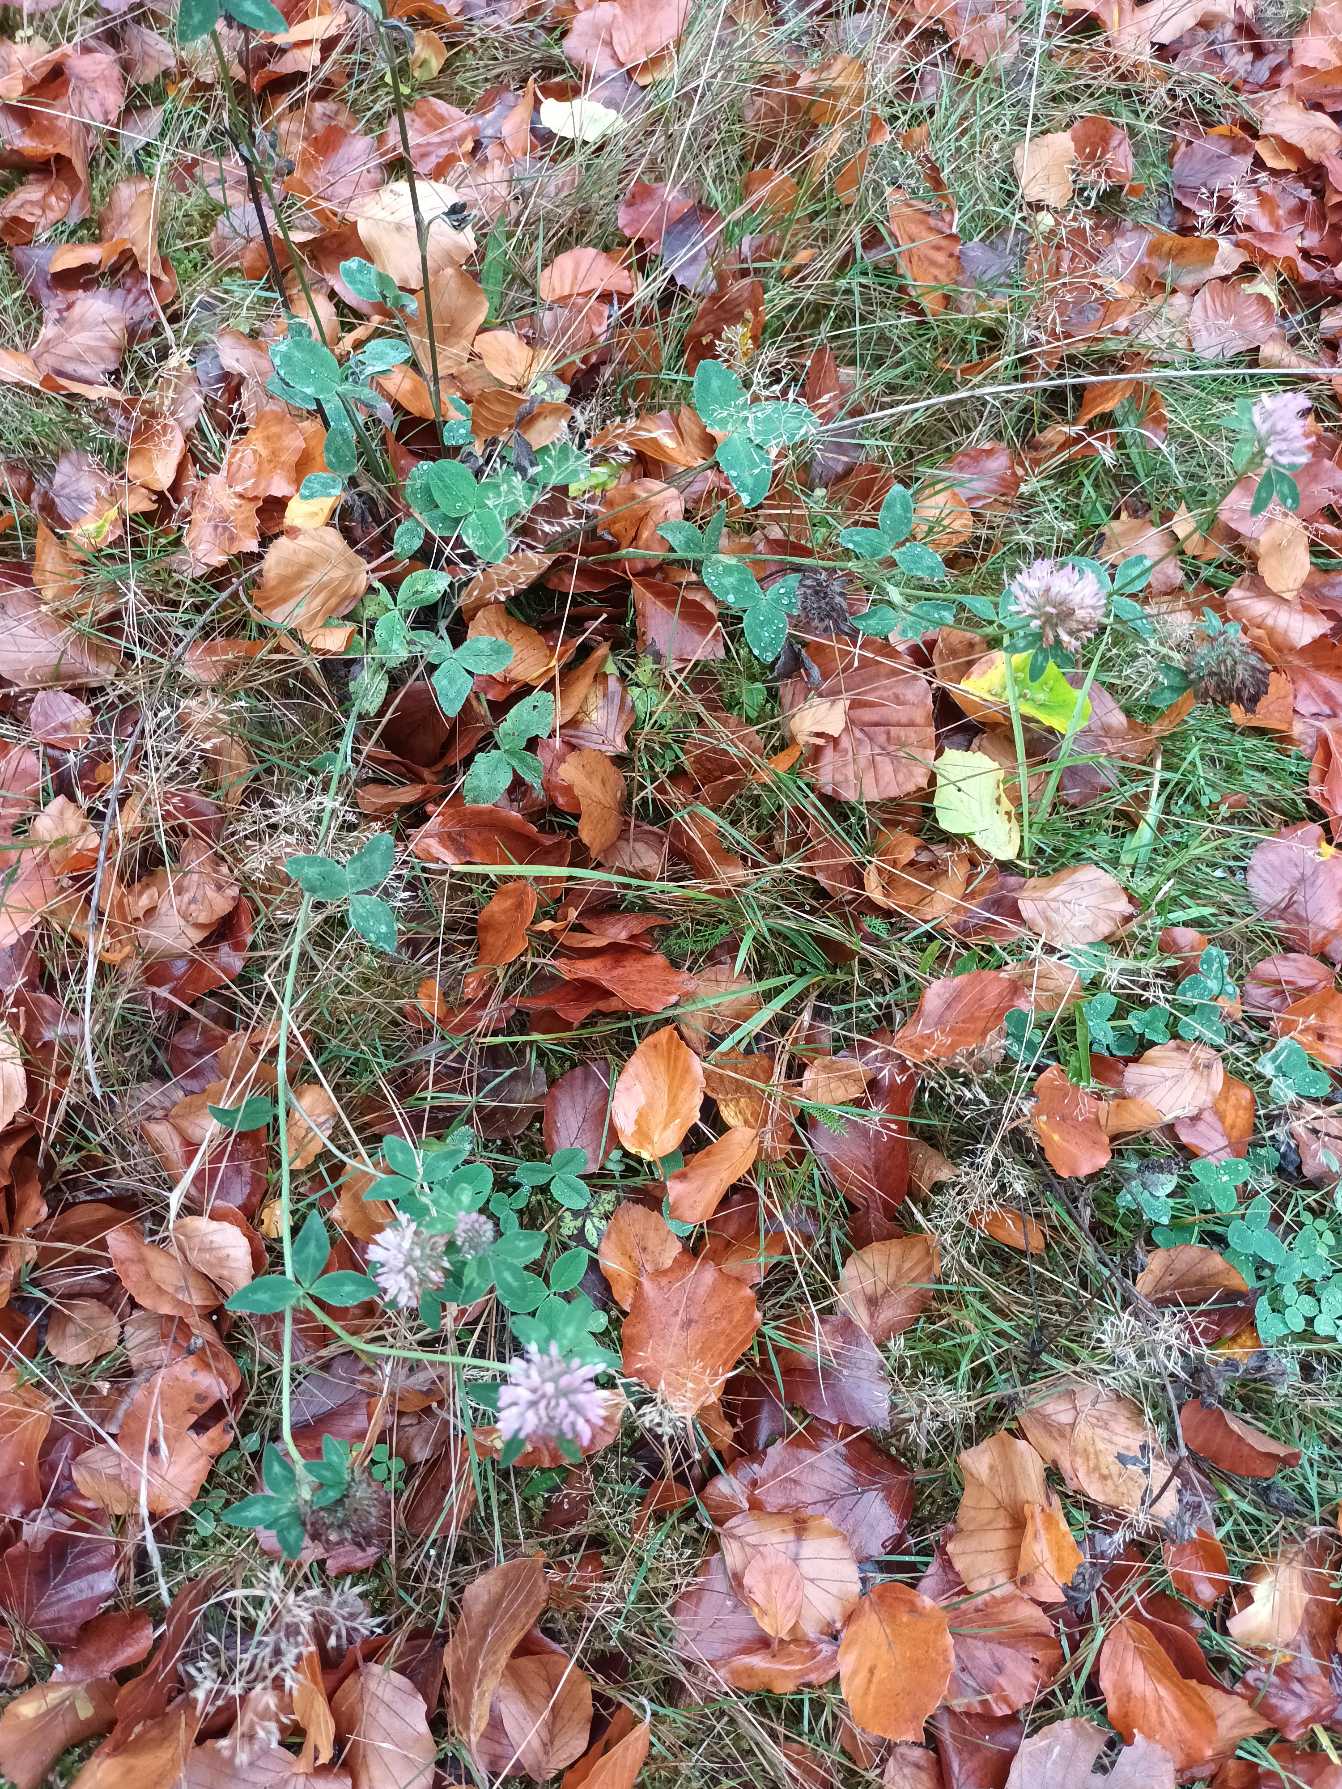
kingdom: Plantae
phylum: Tracheophyta
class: Magnoliopsida
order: Fabales
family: Fabaceae
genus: Trifolium
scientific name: Trifolium pratense
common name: Rød-kløver
